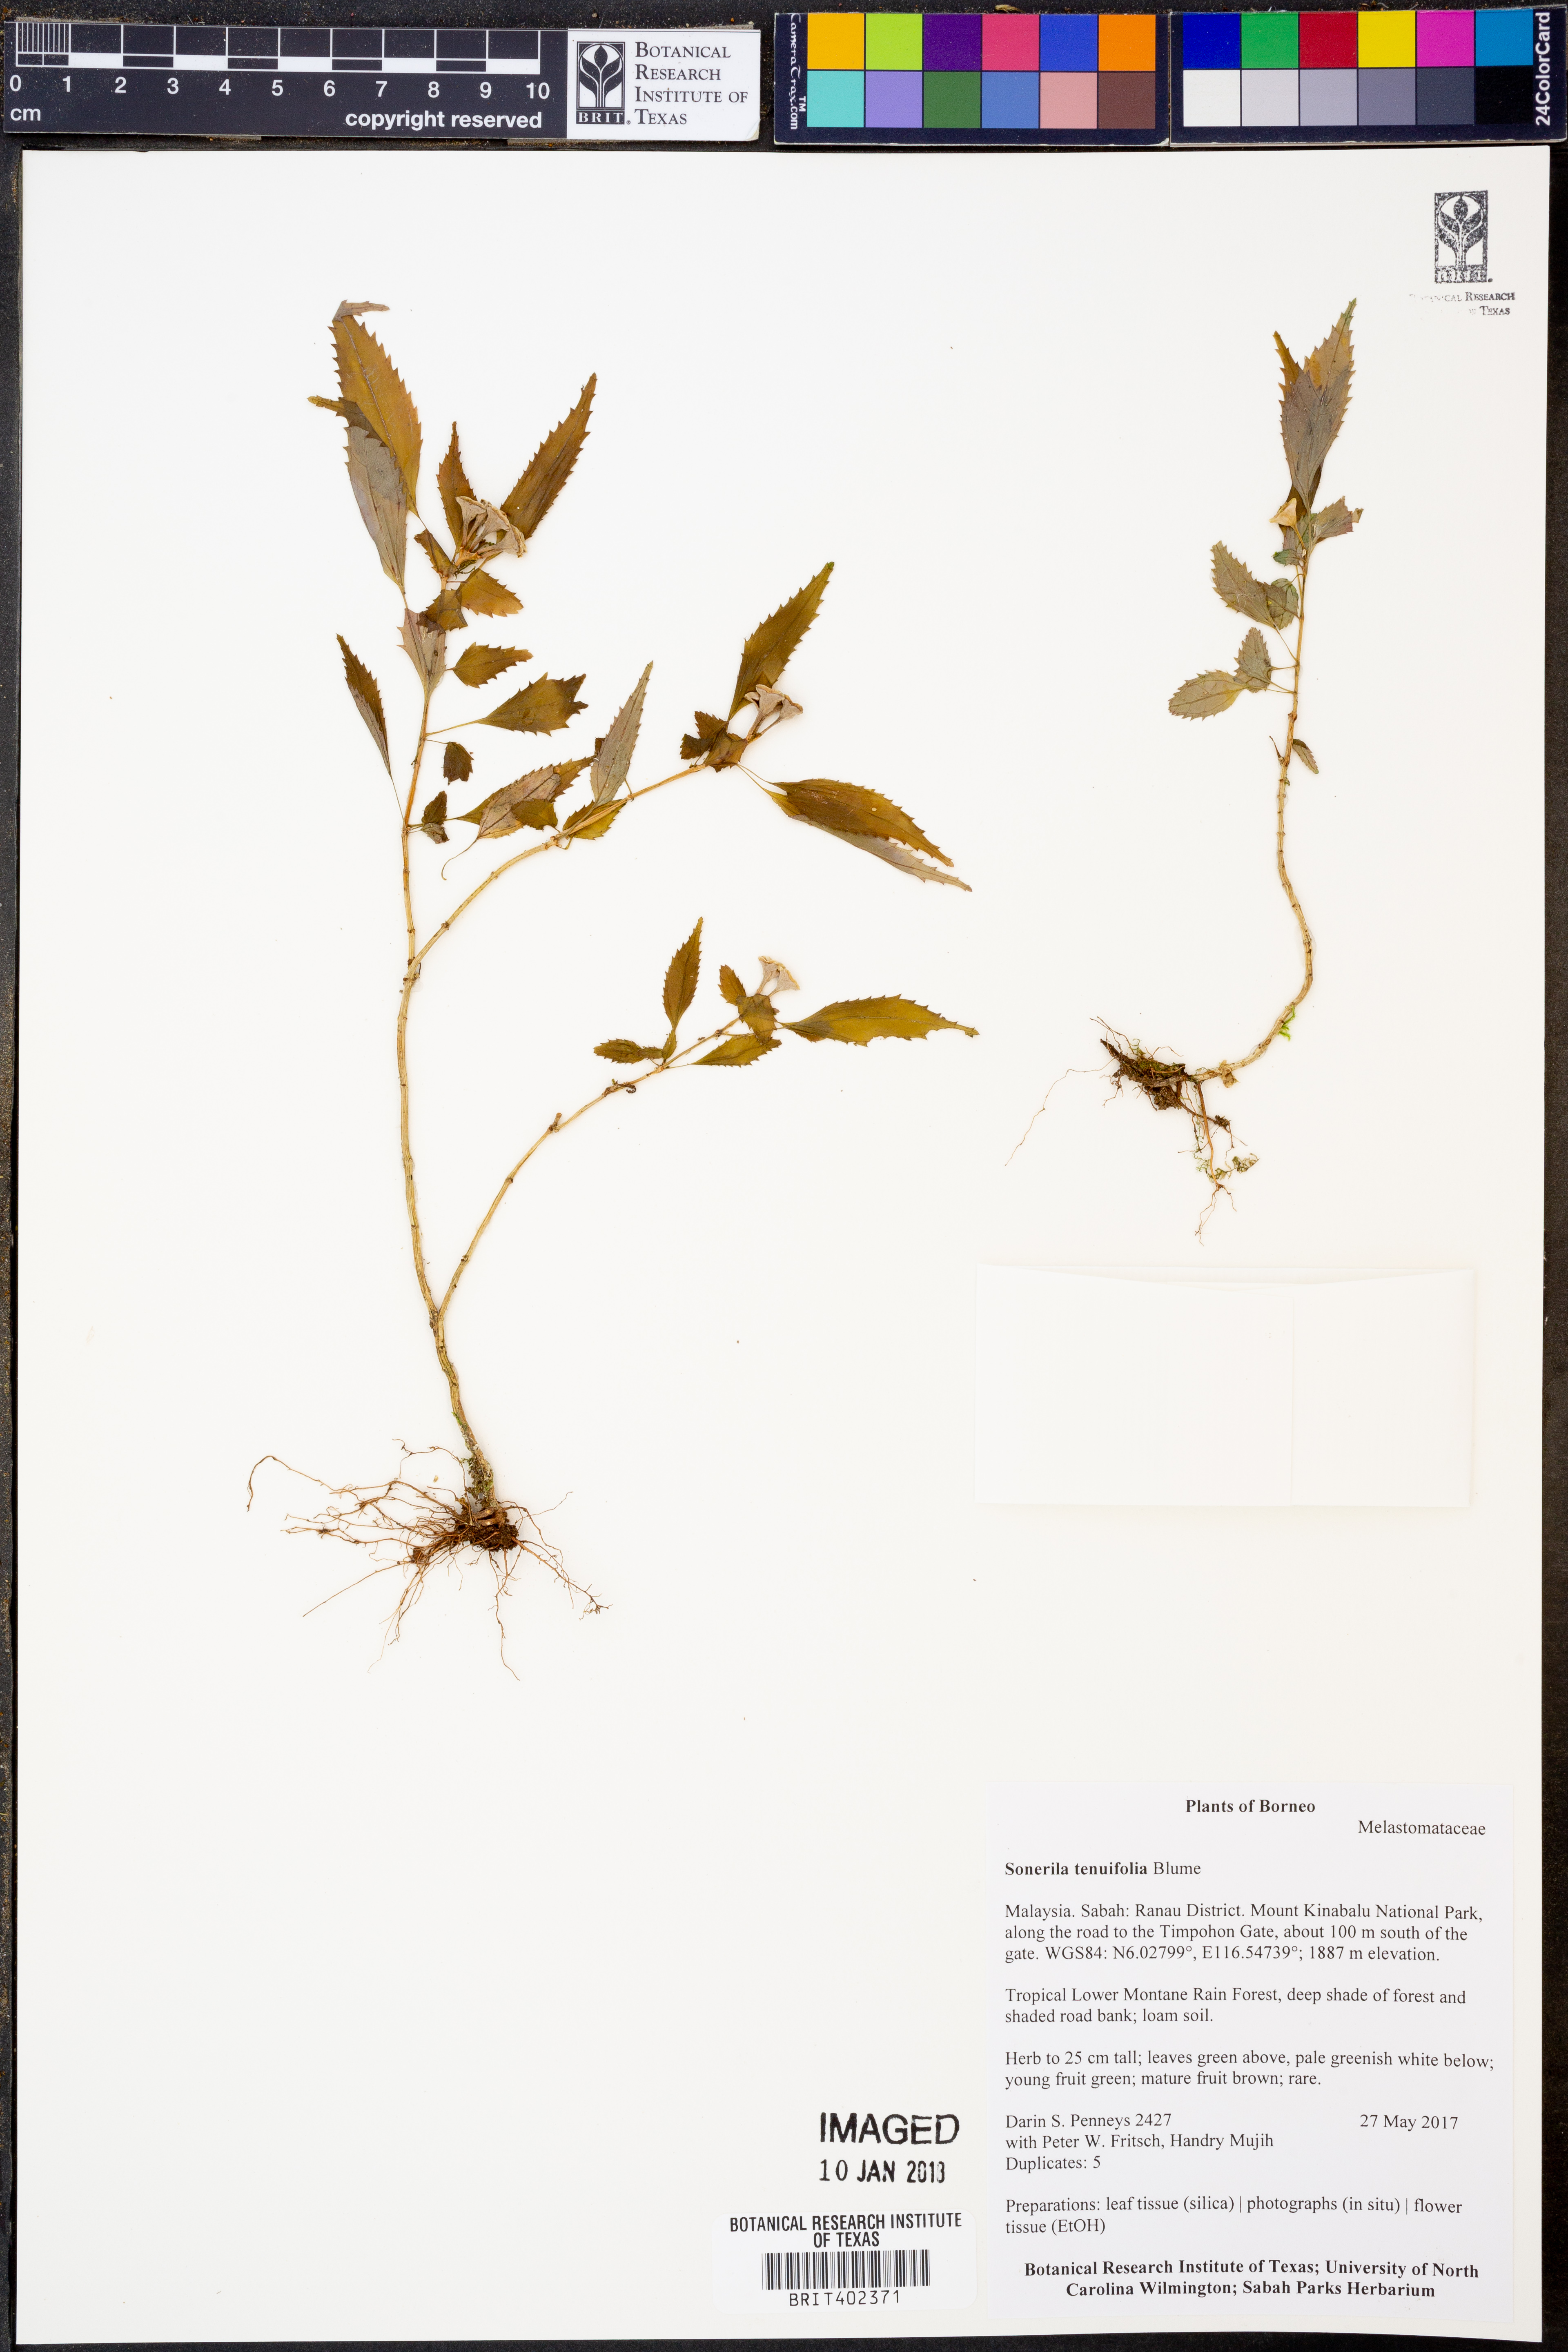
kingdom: Plantae
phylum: Tracheophyta
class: Magnoliopsida
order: Myrtales
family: Melastomataceae
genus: Sonerila
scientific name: Sonerila tenuifolia
